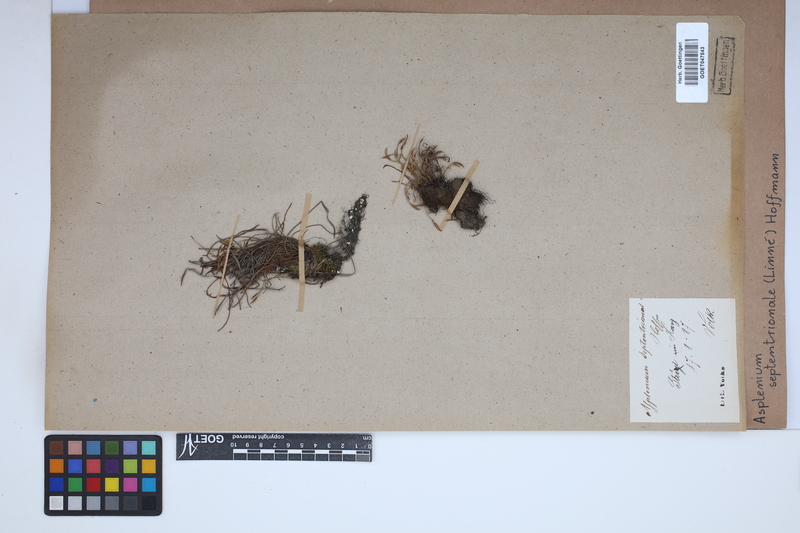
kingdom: Plantae
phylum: Tracheophyta
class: Polypodiopsida
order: Polypodiales
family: Aspleniaceae
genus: Asplenium
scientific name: Asplenium septentrionale
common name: Forked spleenwort
